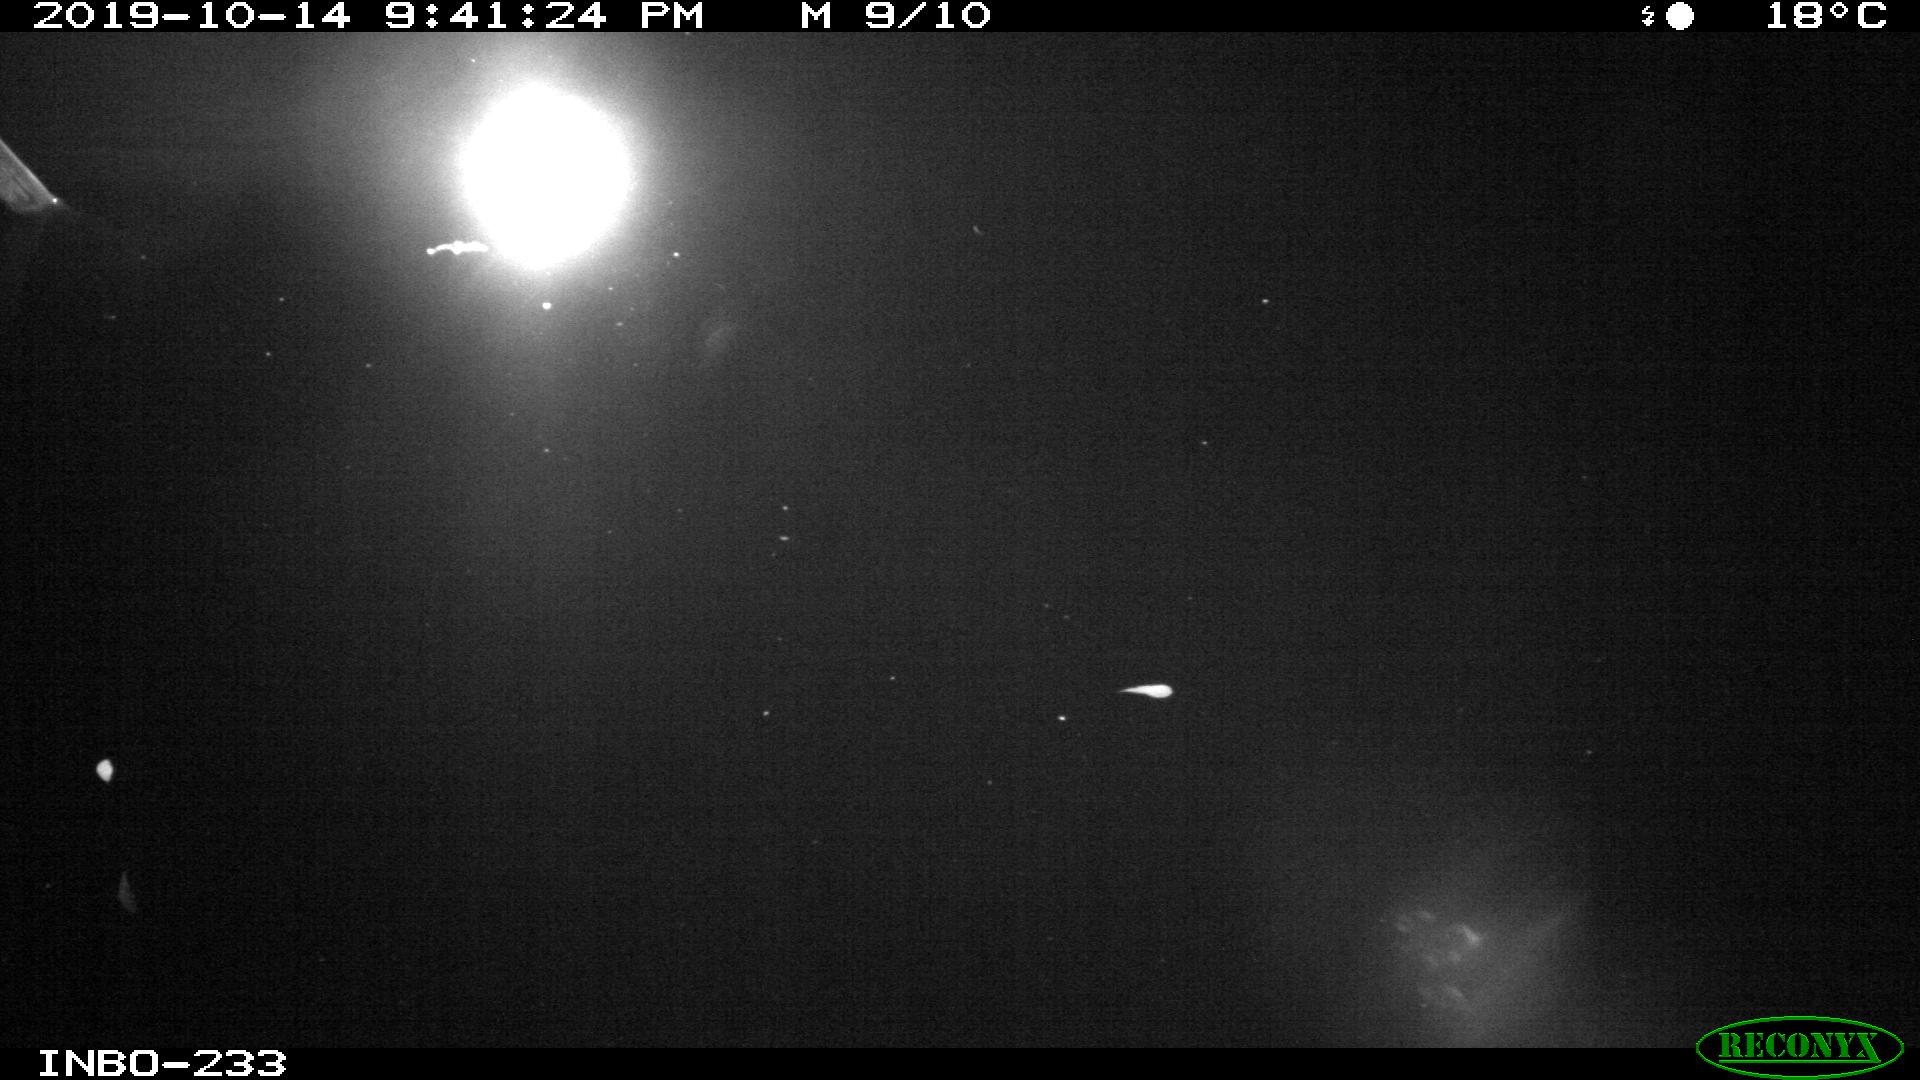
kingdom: Animalia
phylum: Chordata
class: Aves
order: Anseriformes
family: Anatidae
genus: Anas
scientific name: Anas platyrhynchos
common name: Mallard
